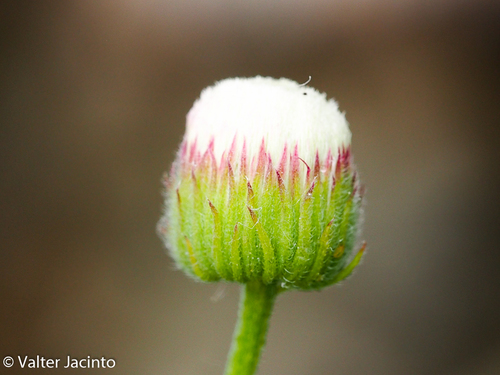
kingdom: Plantae
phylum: Tracheophyta
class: Magnoliopsida
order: Asterales
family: Asteraceae
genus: Erigeron
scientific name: Erigeron bonariensis
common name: Argentine fleabane
